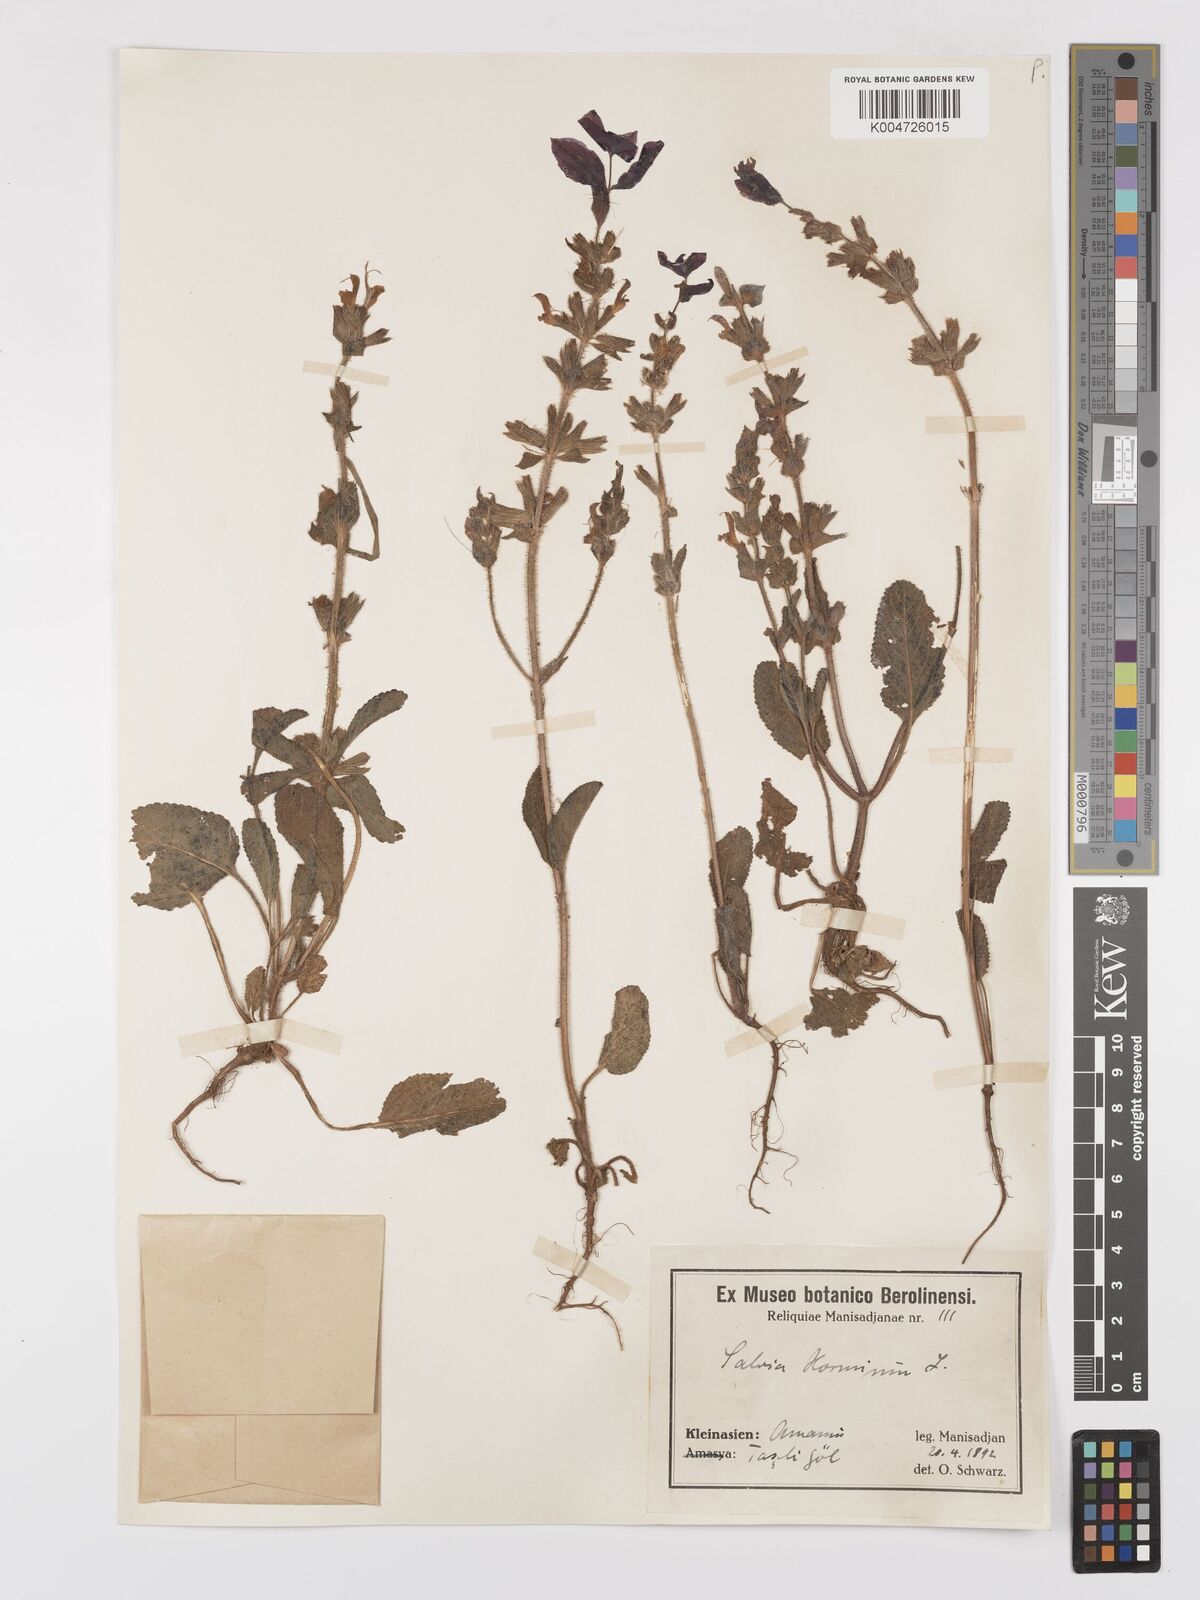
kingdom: Plantae
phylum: Tracheophyta
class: Magnoliopsida
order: Lamiales
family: Lamiaceae
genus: Salvia
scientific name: Salvia viridis
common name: Annual clary
